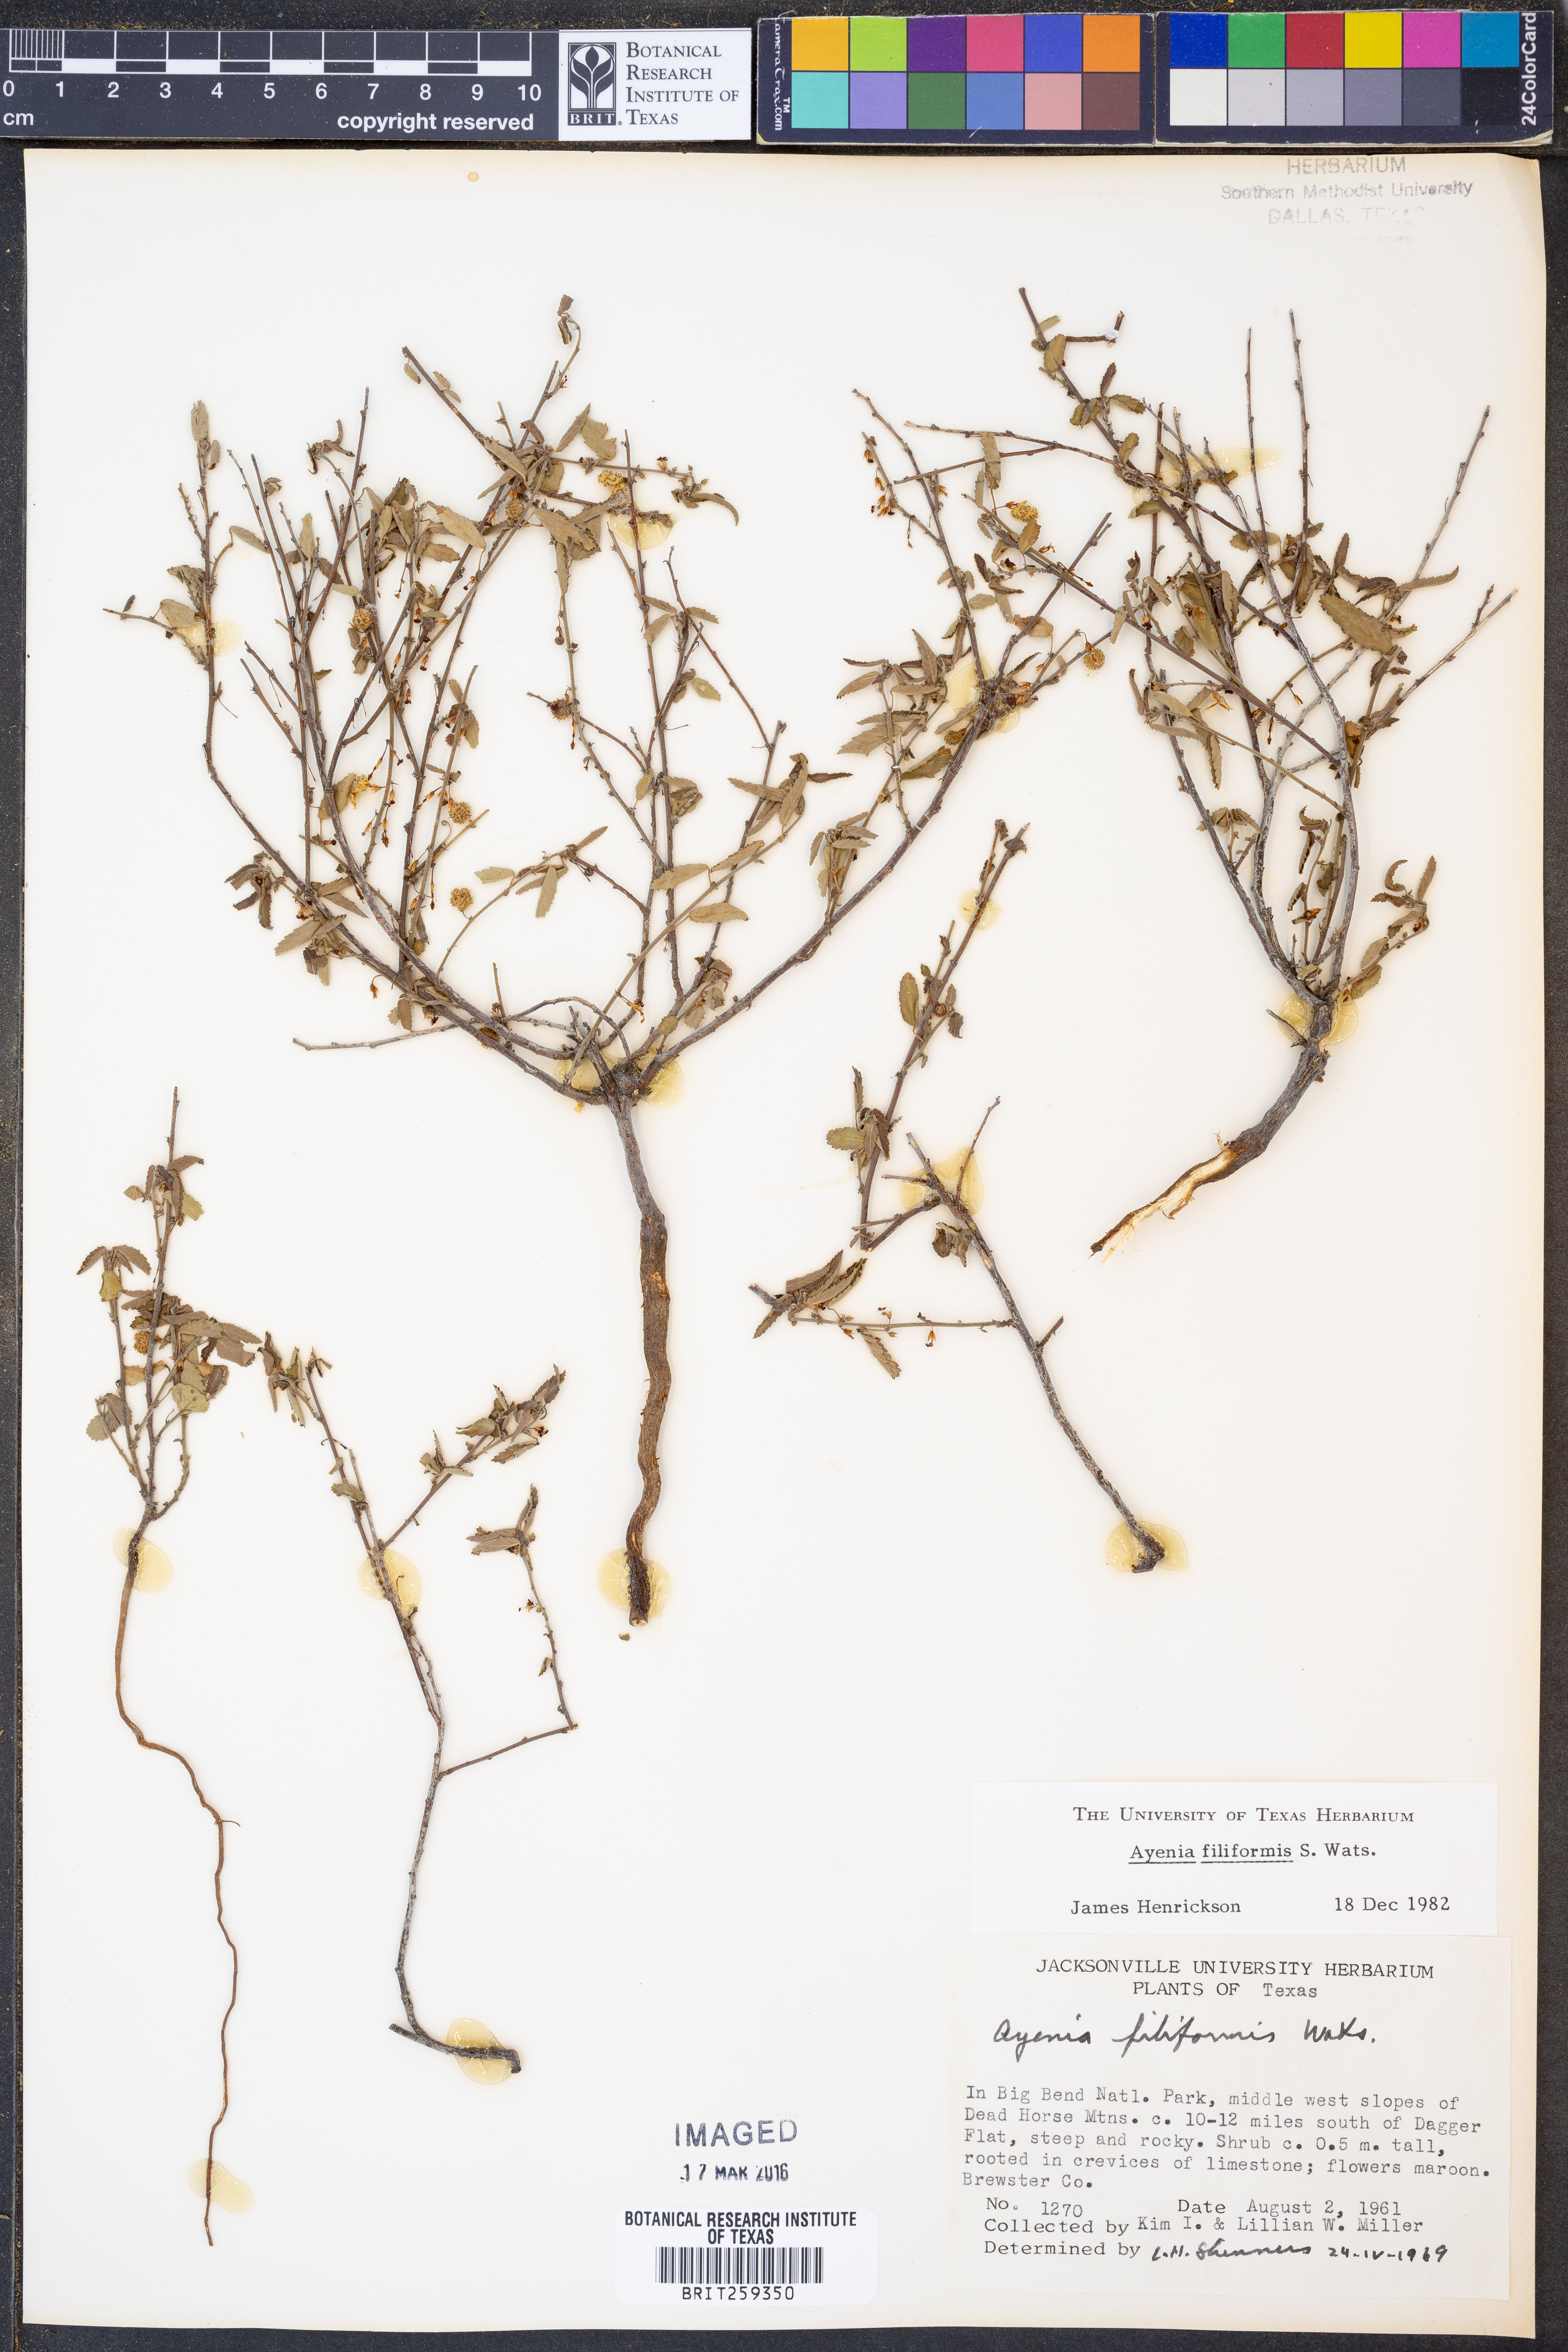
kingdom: Plantae
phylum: Tracheophyta
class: Magnoliopsida
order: Malvales
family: Malvaceae
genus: Ayenia
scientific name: Ayenia filiformis
